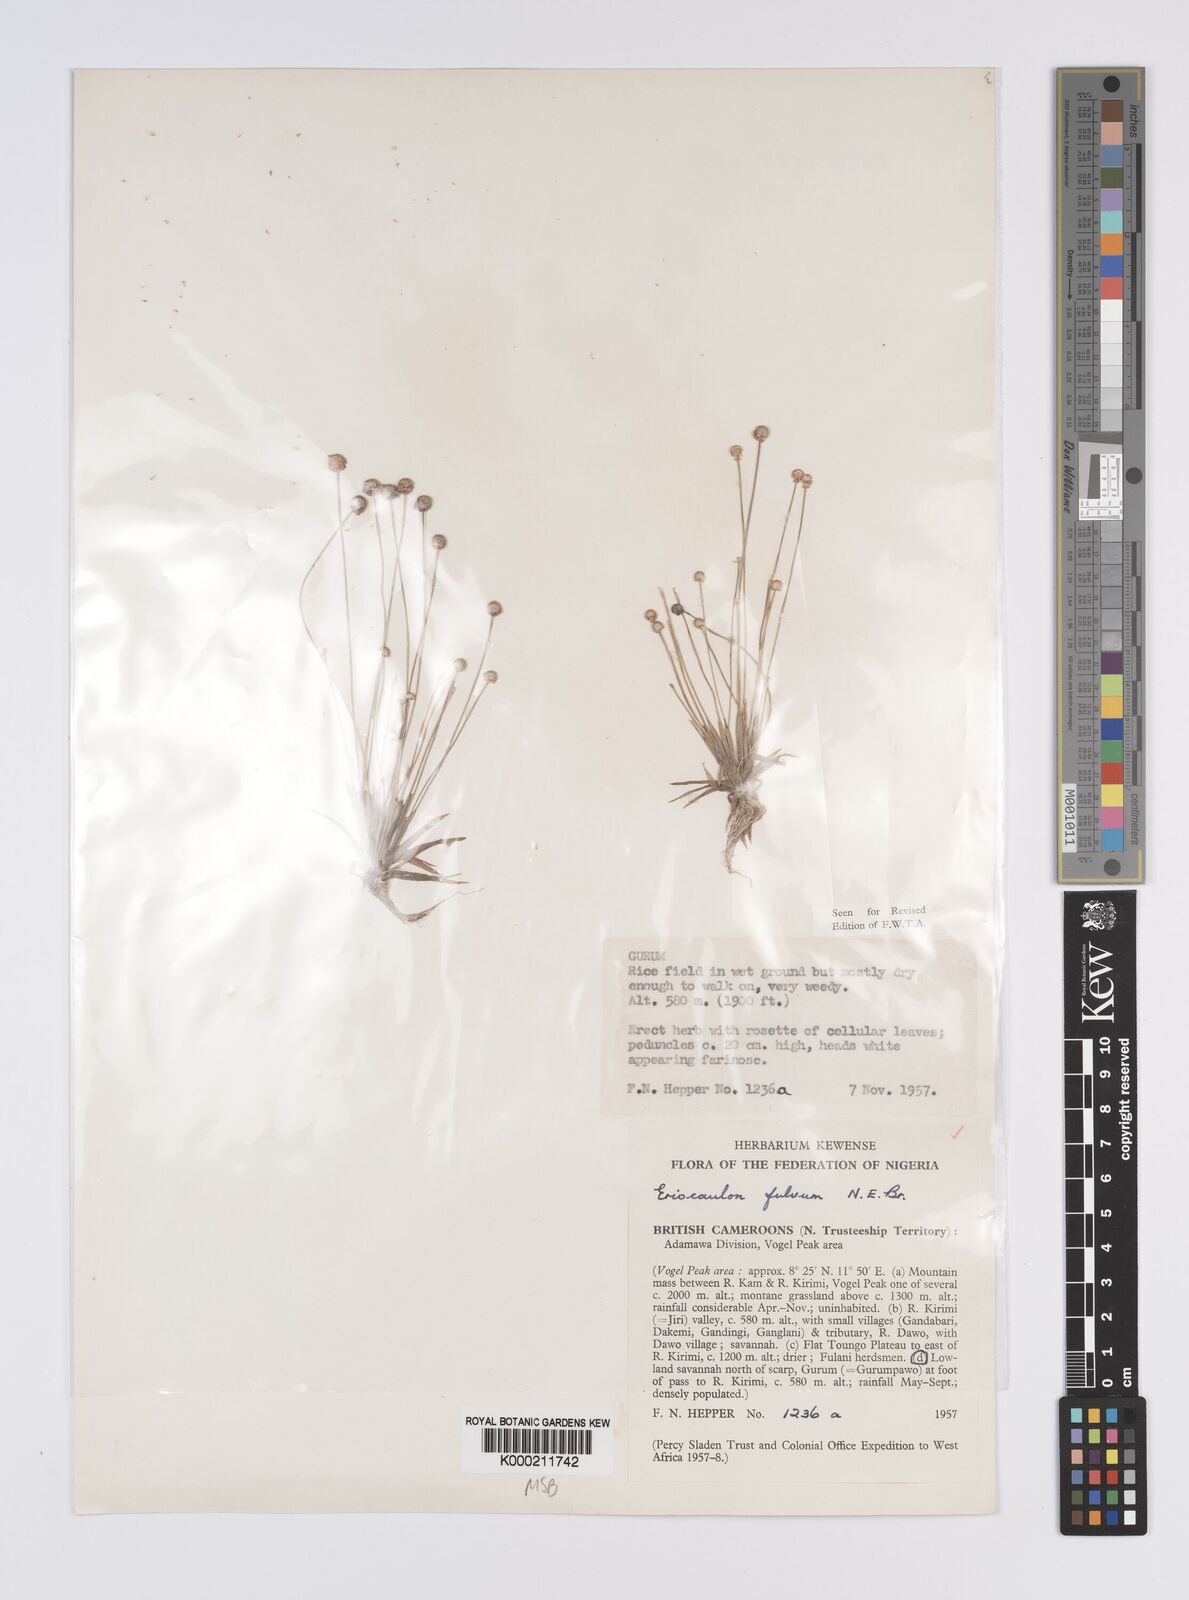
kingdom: Plantae
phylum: Tracheophyta
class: Liliopsida
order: Poales
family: Eriocaulaceae
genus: Eriocaulon
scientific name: Eriocaulon fulvum
